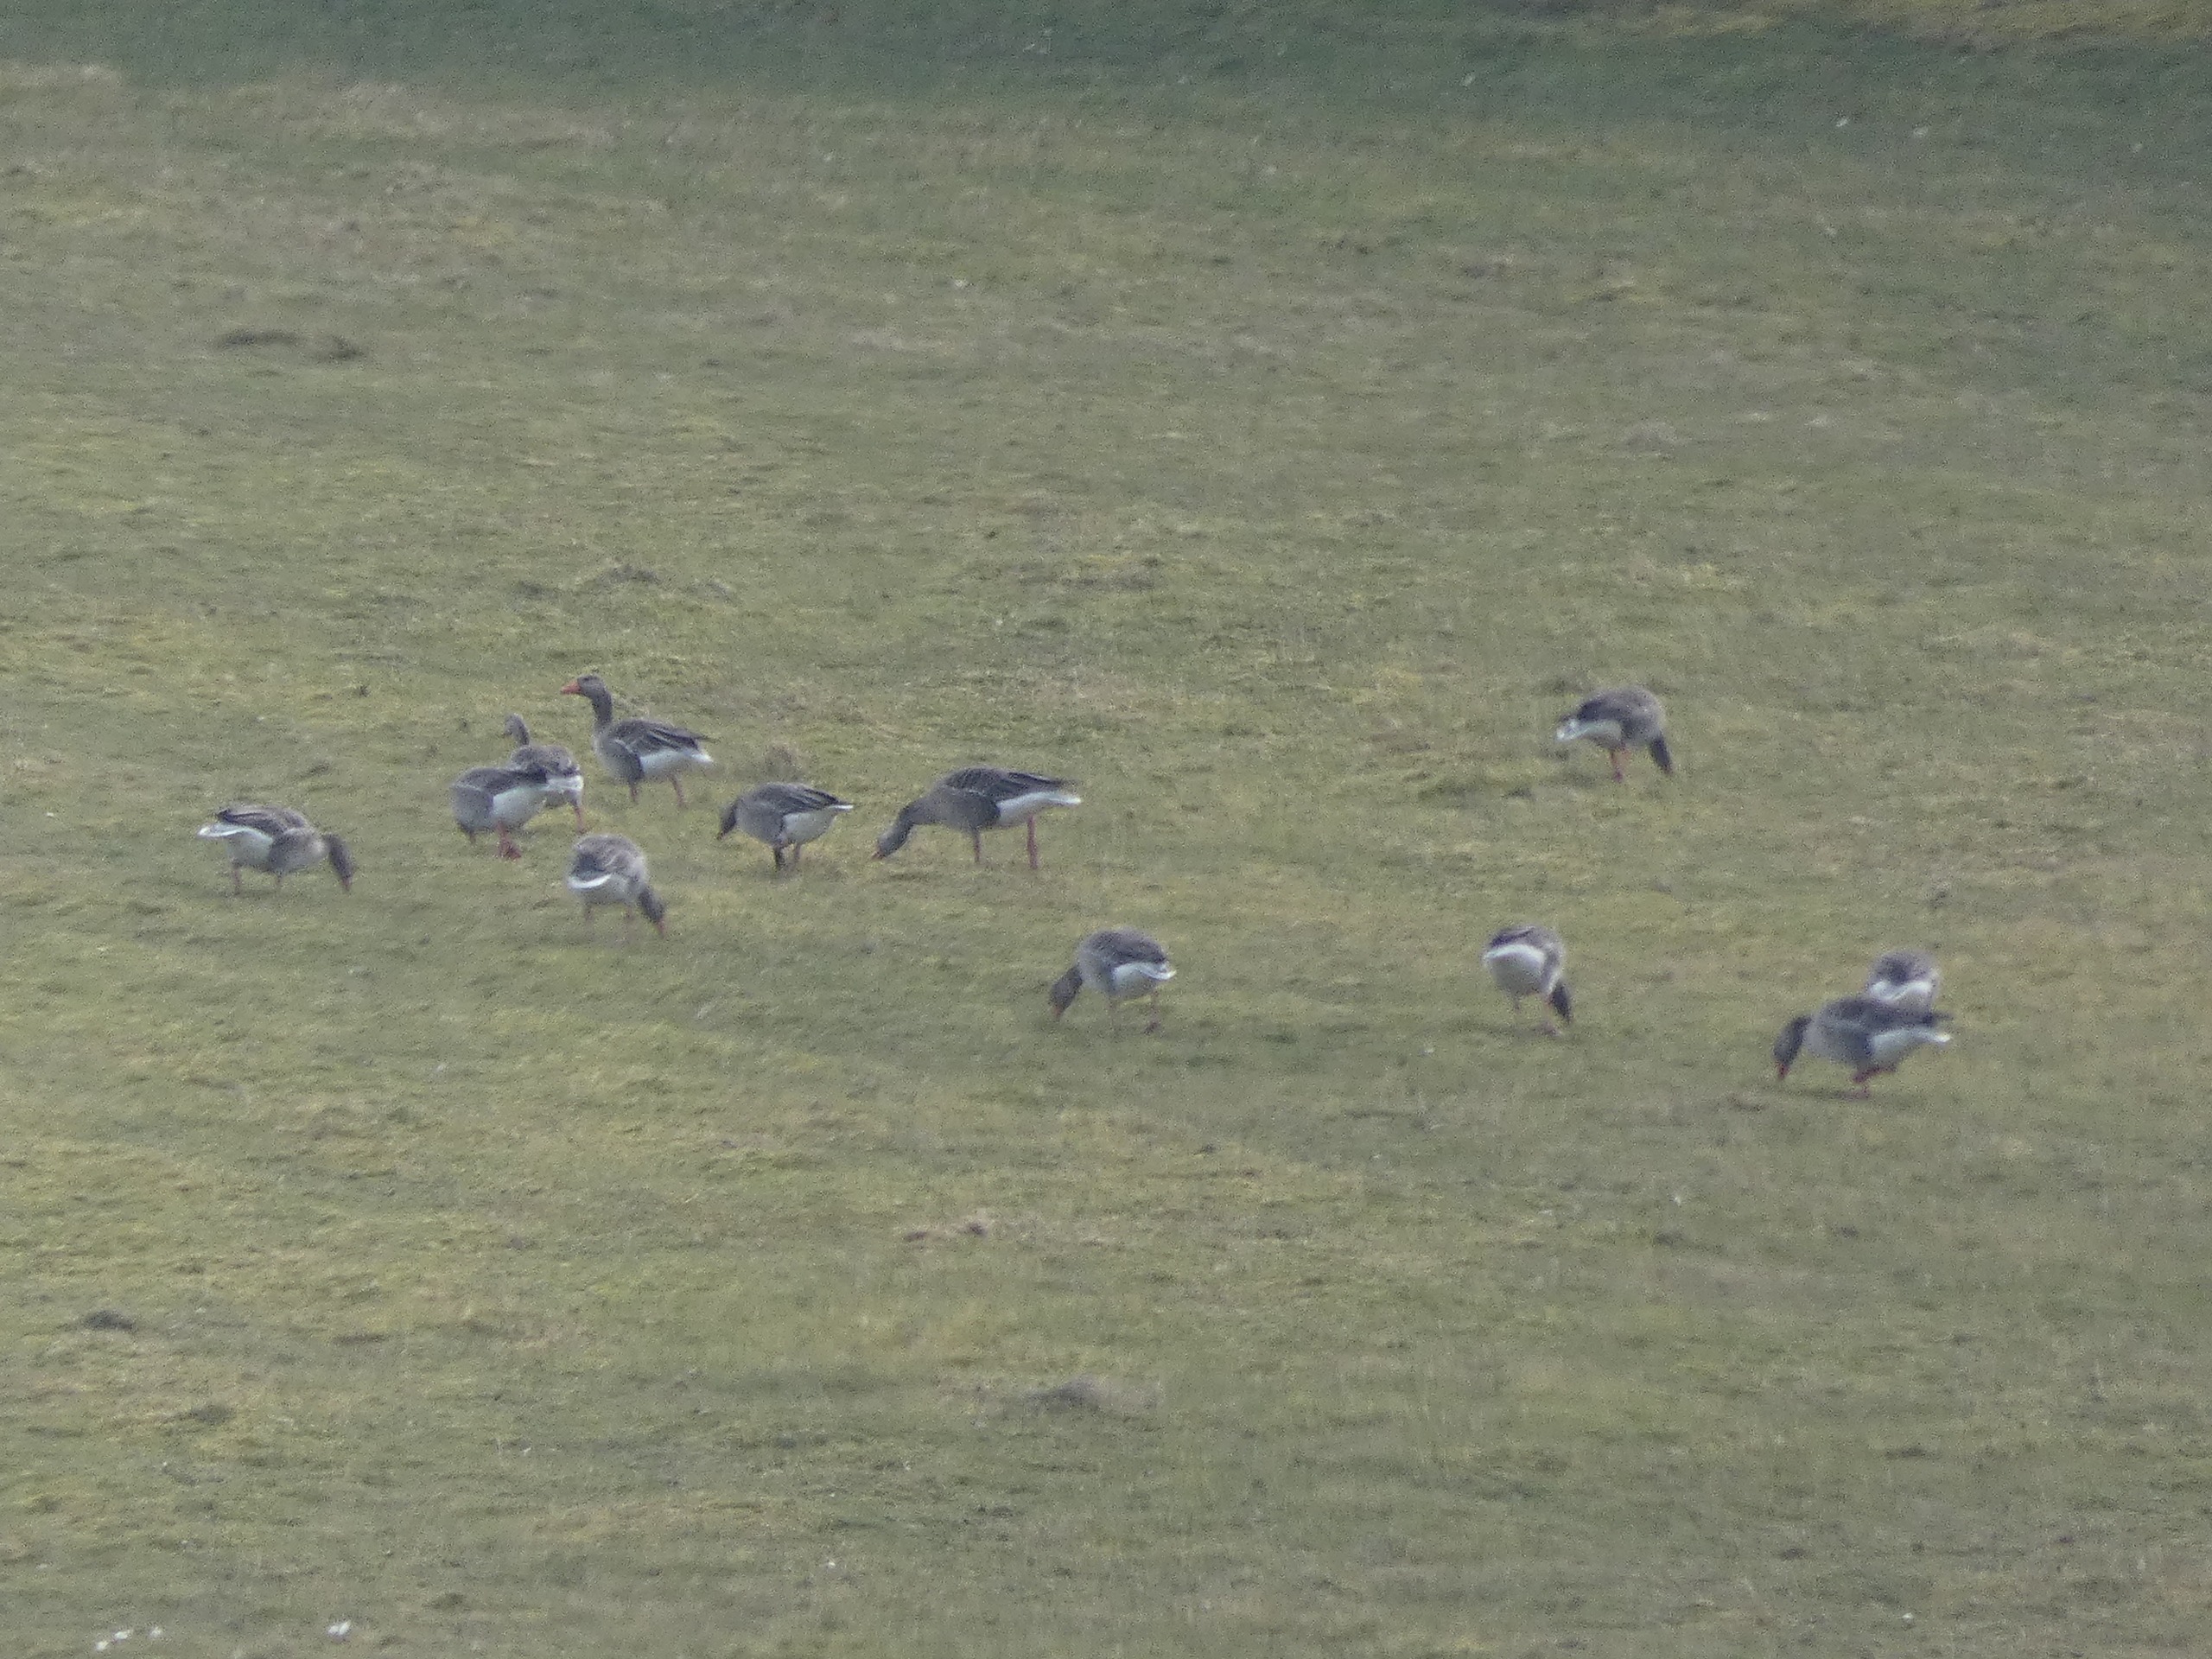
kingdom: Animalia
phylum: Chordata
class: Aves
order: Anseriformes
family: Anatidae
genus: Anser
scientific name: Anser anser
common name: Grågås
